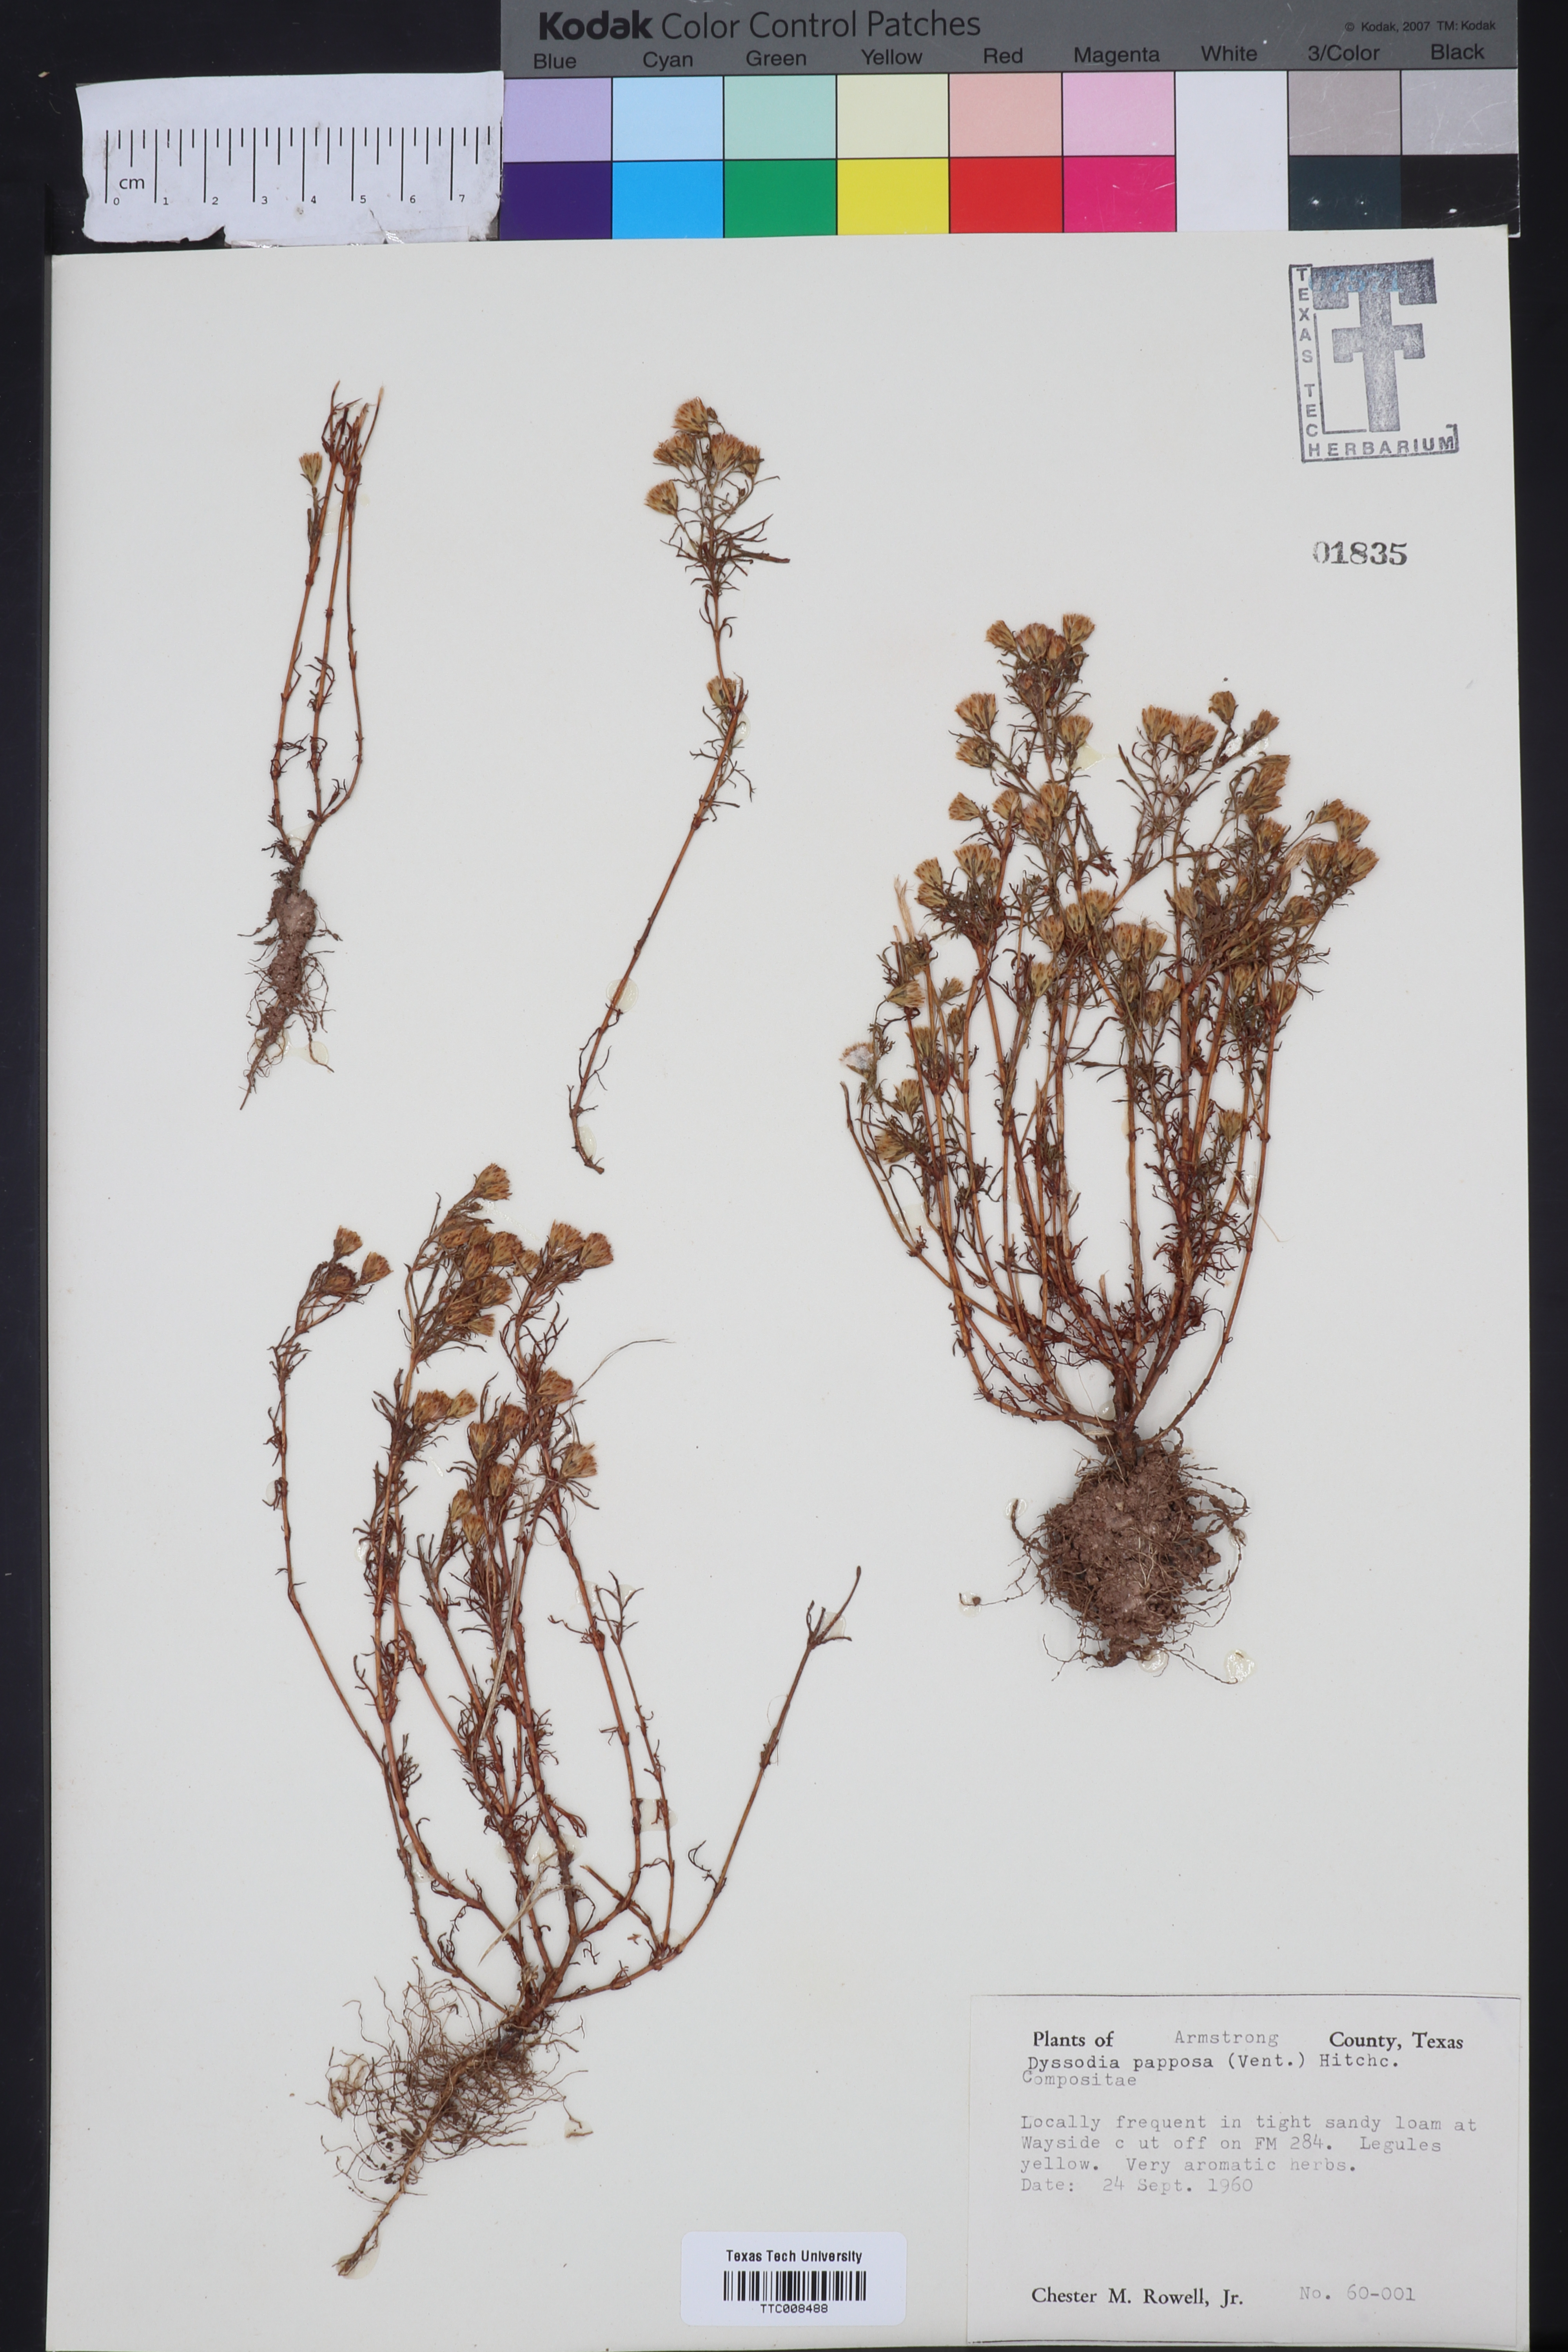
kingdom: Plantae
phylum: Tracheophyta
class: Magnoliopsida
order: Asterales
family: Asteraceae
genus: Dyssodia
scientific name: Dyssodia papposa
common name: Dogweed
